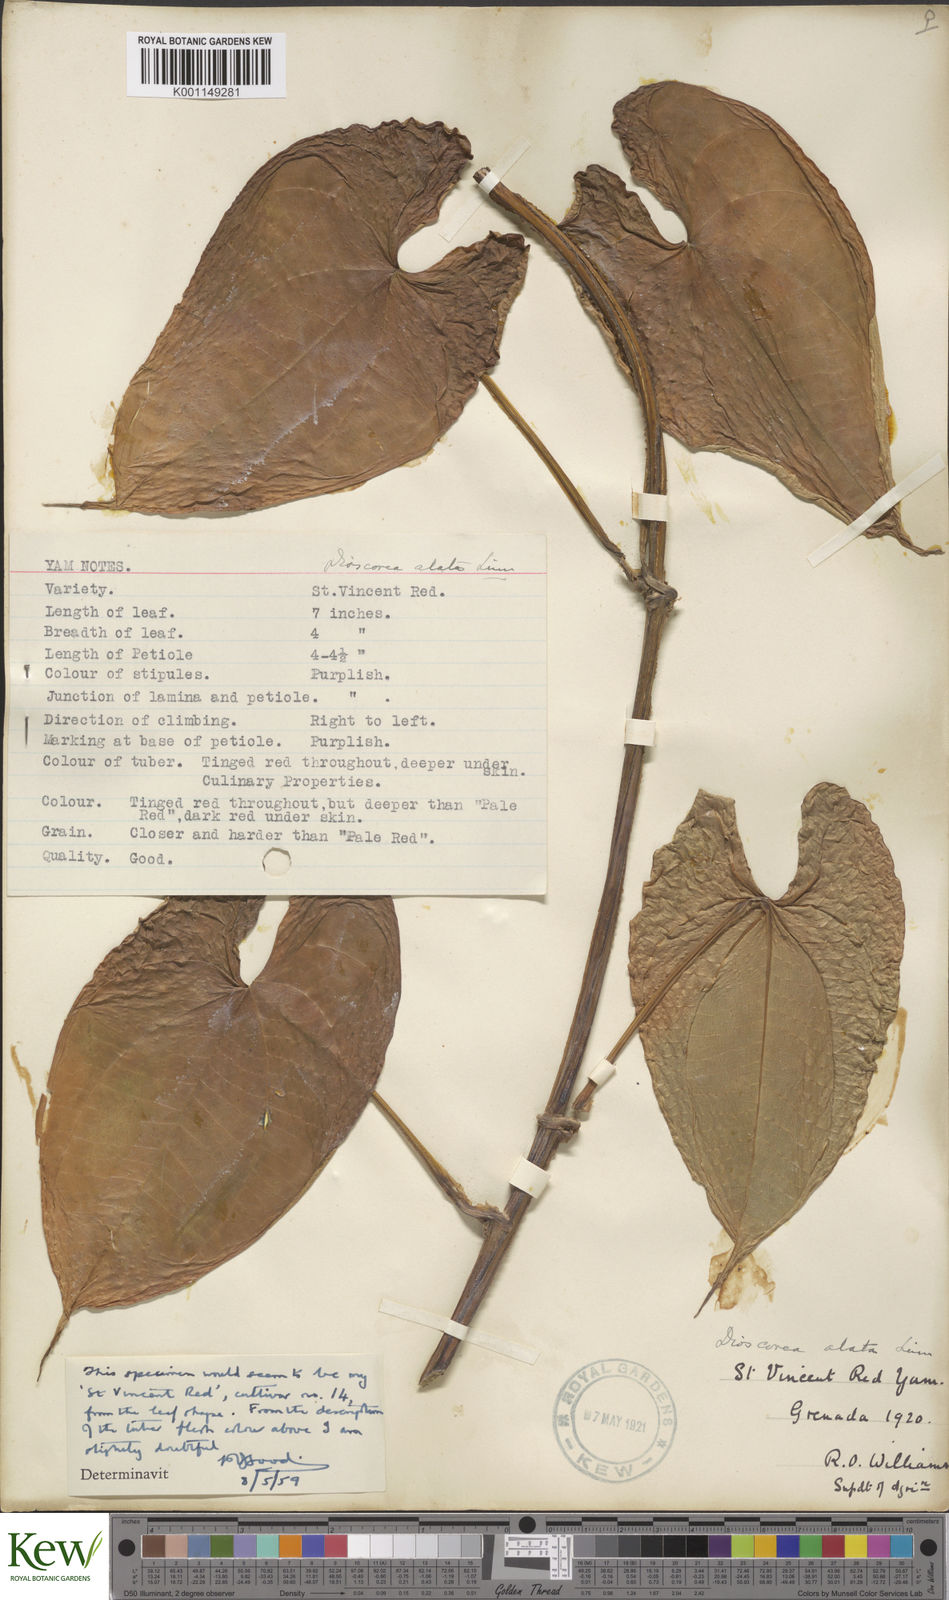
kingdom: Plantae
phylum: Tracheophyta
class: Liliopsida
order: Dioscoreales
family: Dioscoreaceae
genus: Dioscorea
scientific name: Dioscorea alata
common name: Water yam
